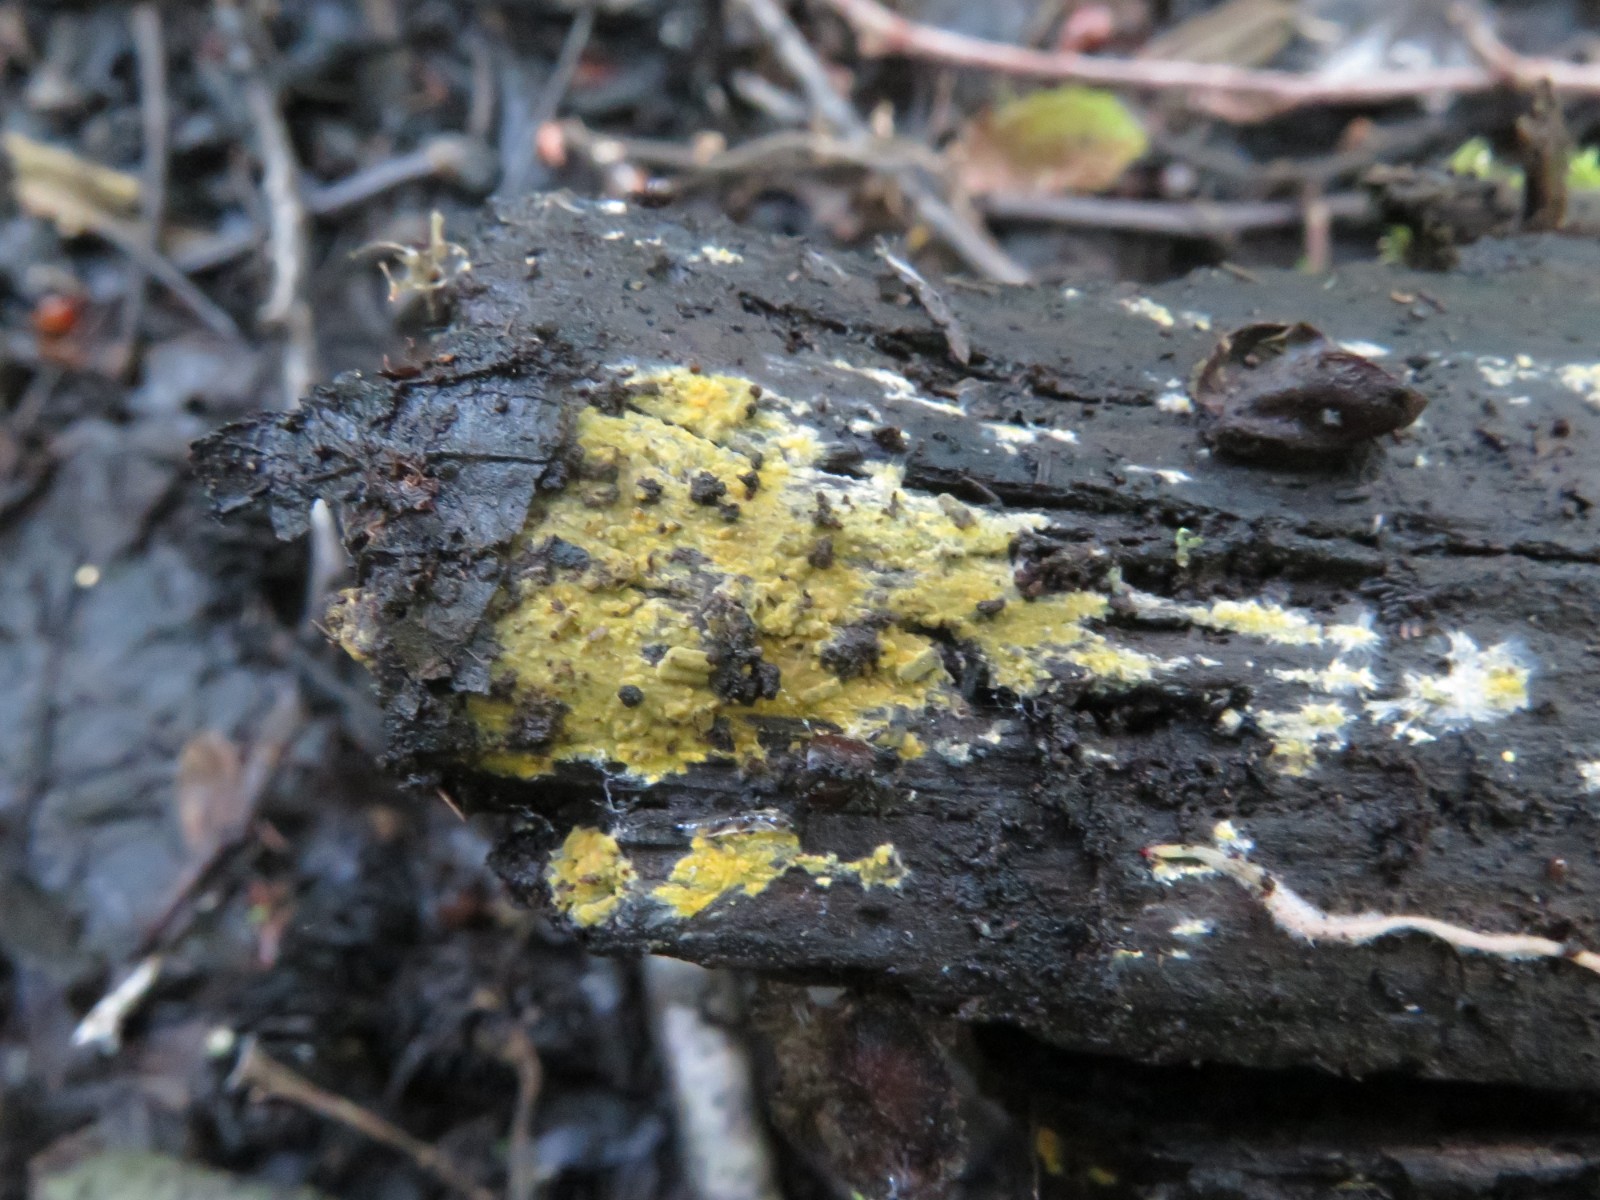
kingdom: Fungi
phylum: Basidiomycota
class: Agaricomycetes
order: Polyporales
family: Meruliaceae
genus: Phlebiodontia
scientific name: Phlebiodontia subochracea
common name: svovl-åresvamp
